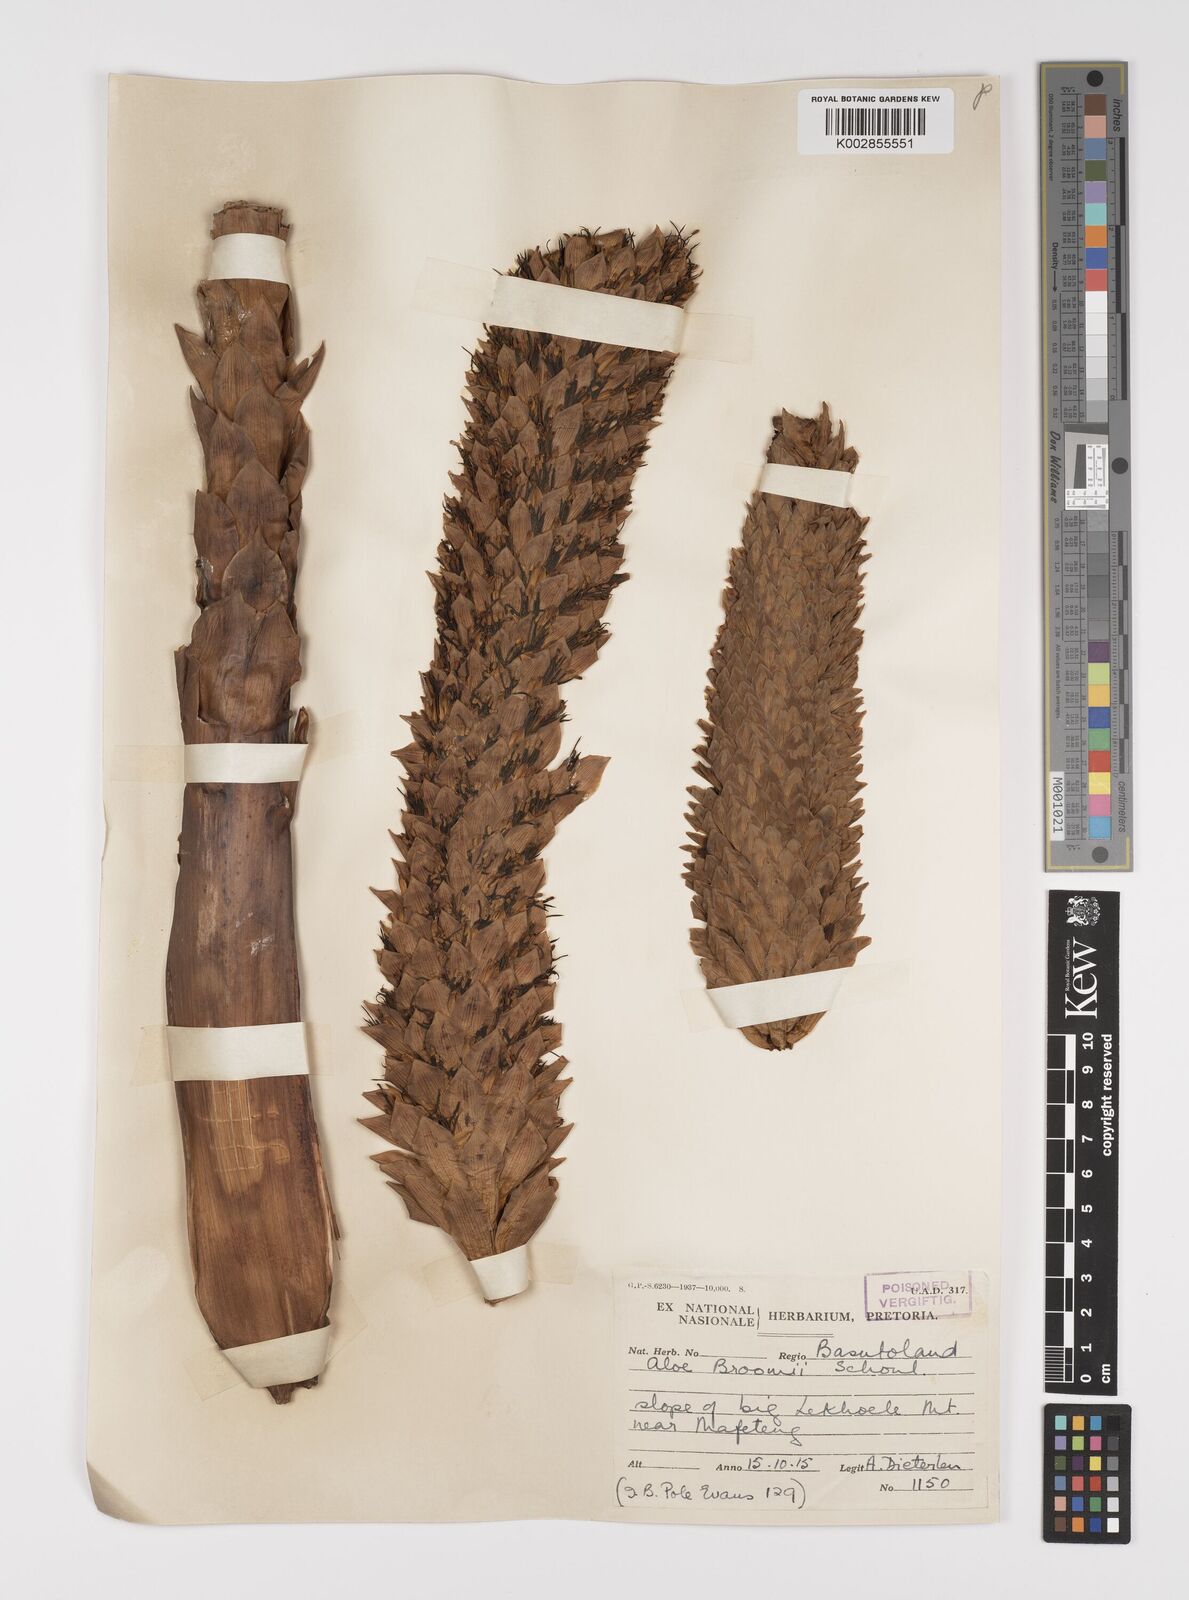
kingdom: Plantae
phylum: Tracheophyta
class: Liliopsida
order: Asparagales
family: Asphodelaceae
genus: Aloe
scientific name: Aloe broomii
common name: Berg alwyn
